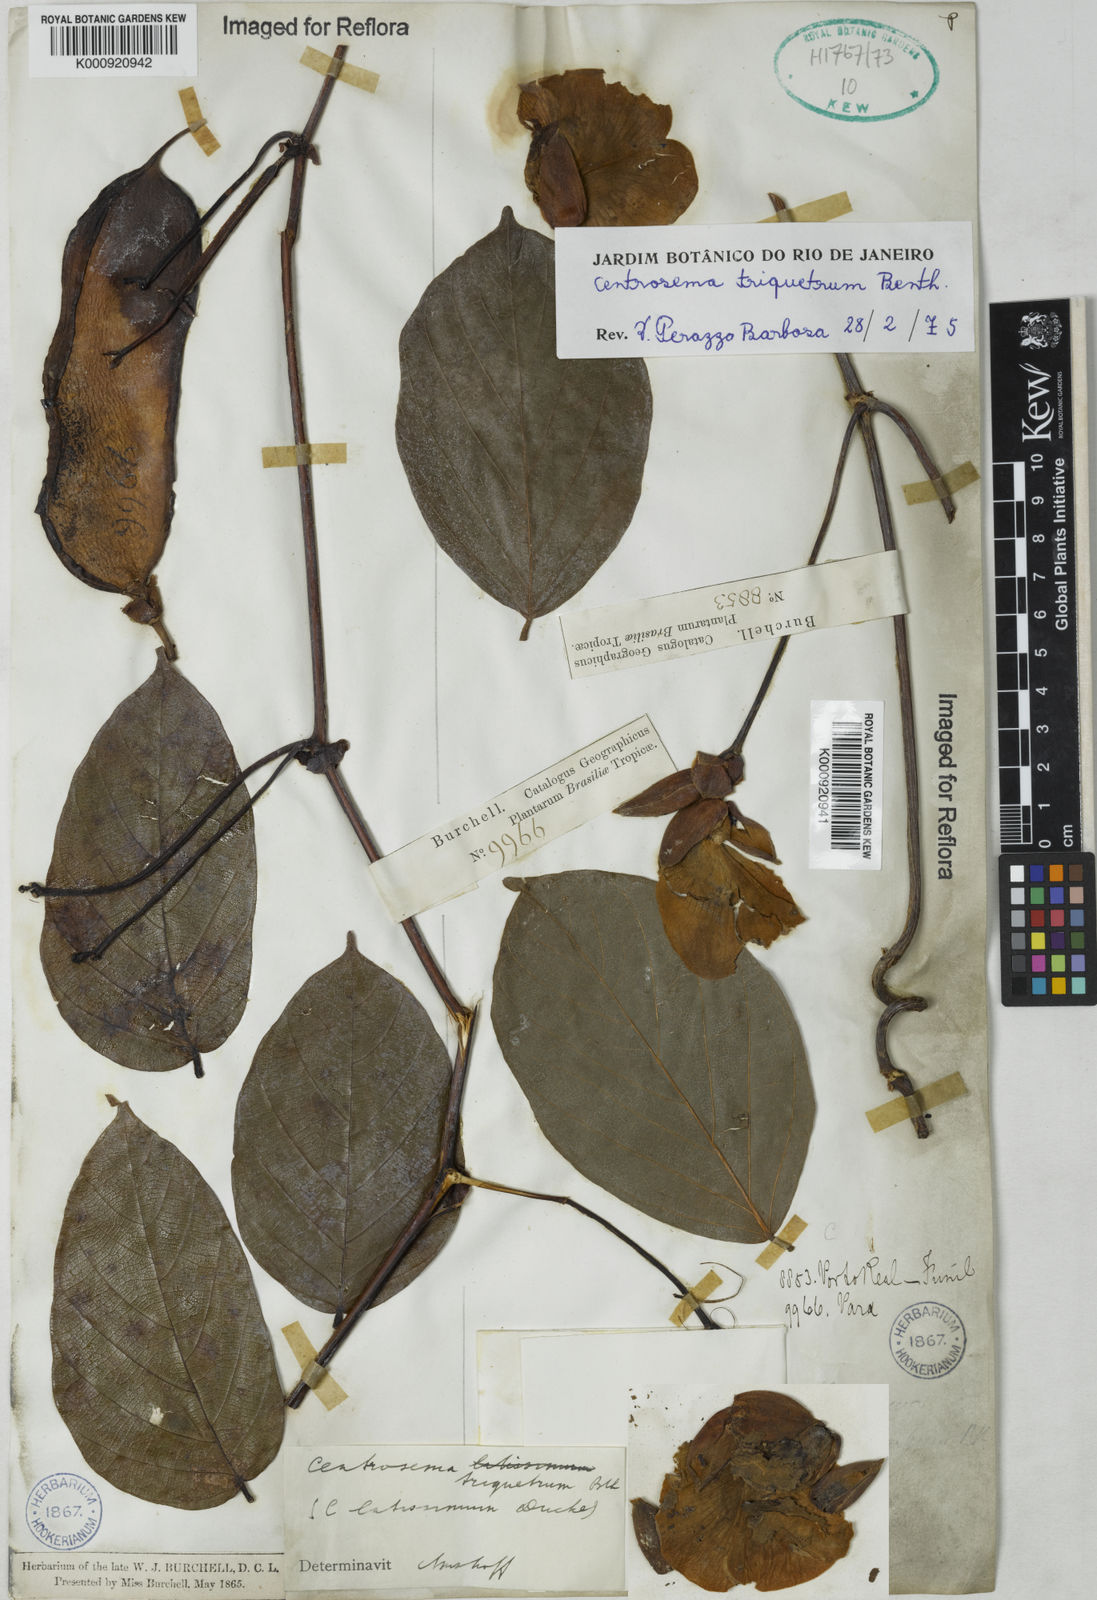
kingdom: Plantae
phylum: Tracheophyta
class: Magnoliopsida
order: Fabales
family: Fabaceae
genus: Centrosema
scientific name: Centrosema triquetrum
